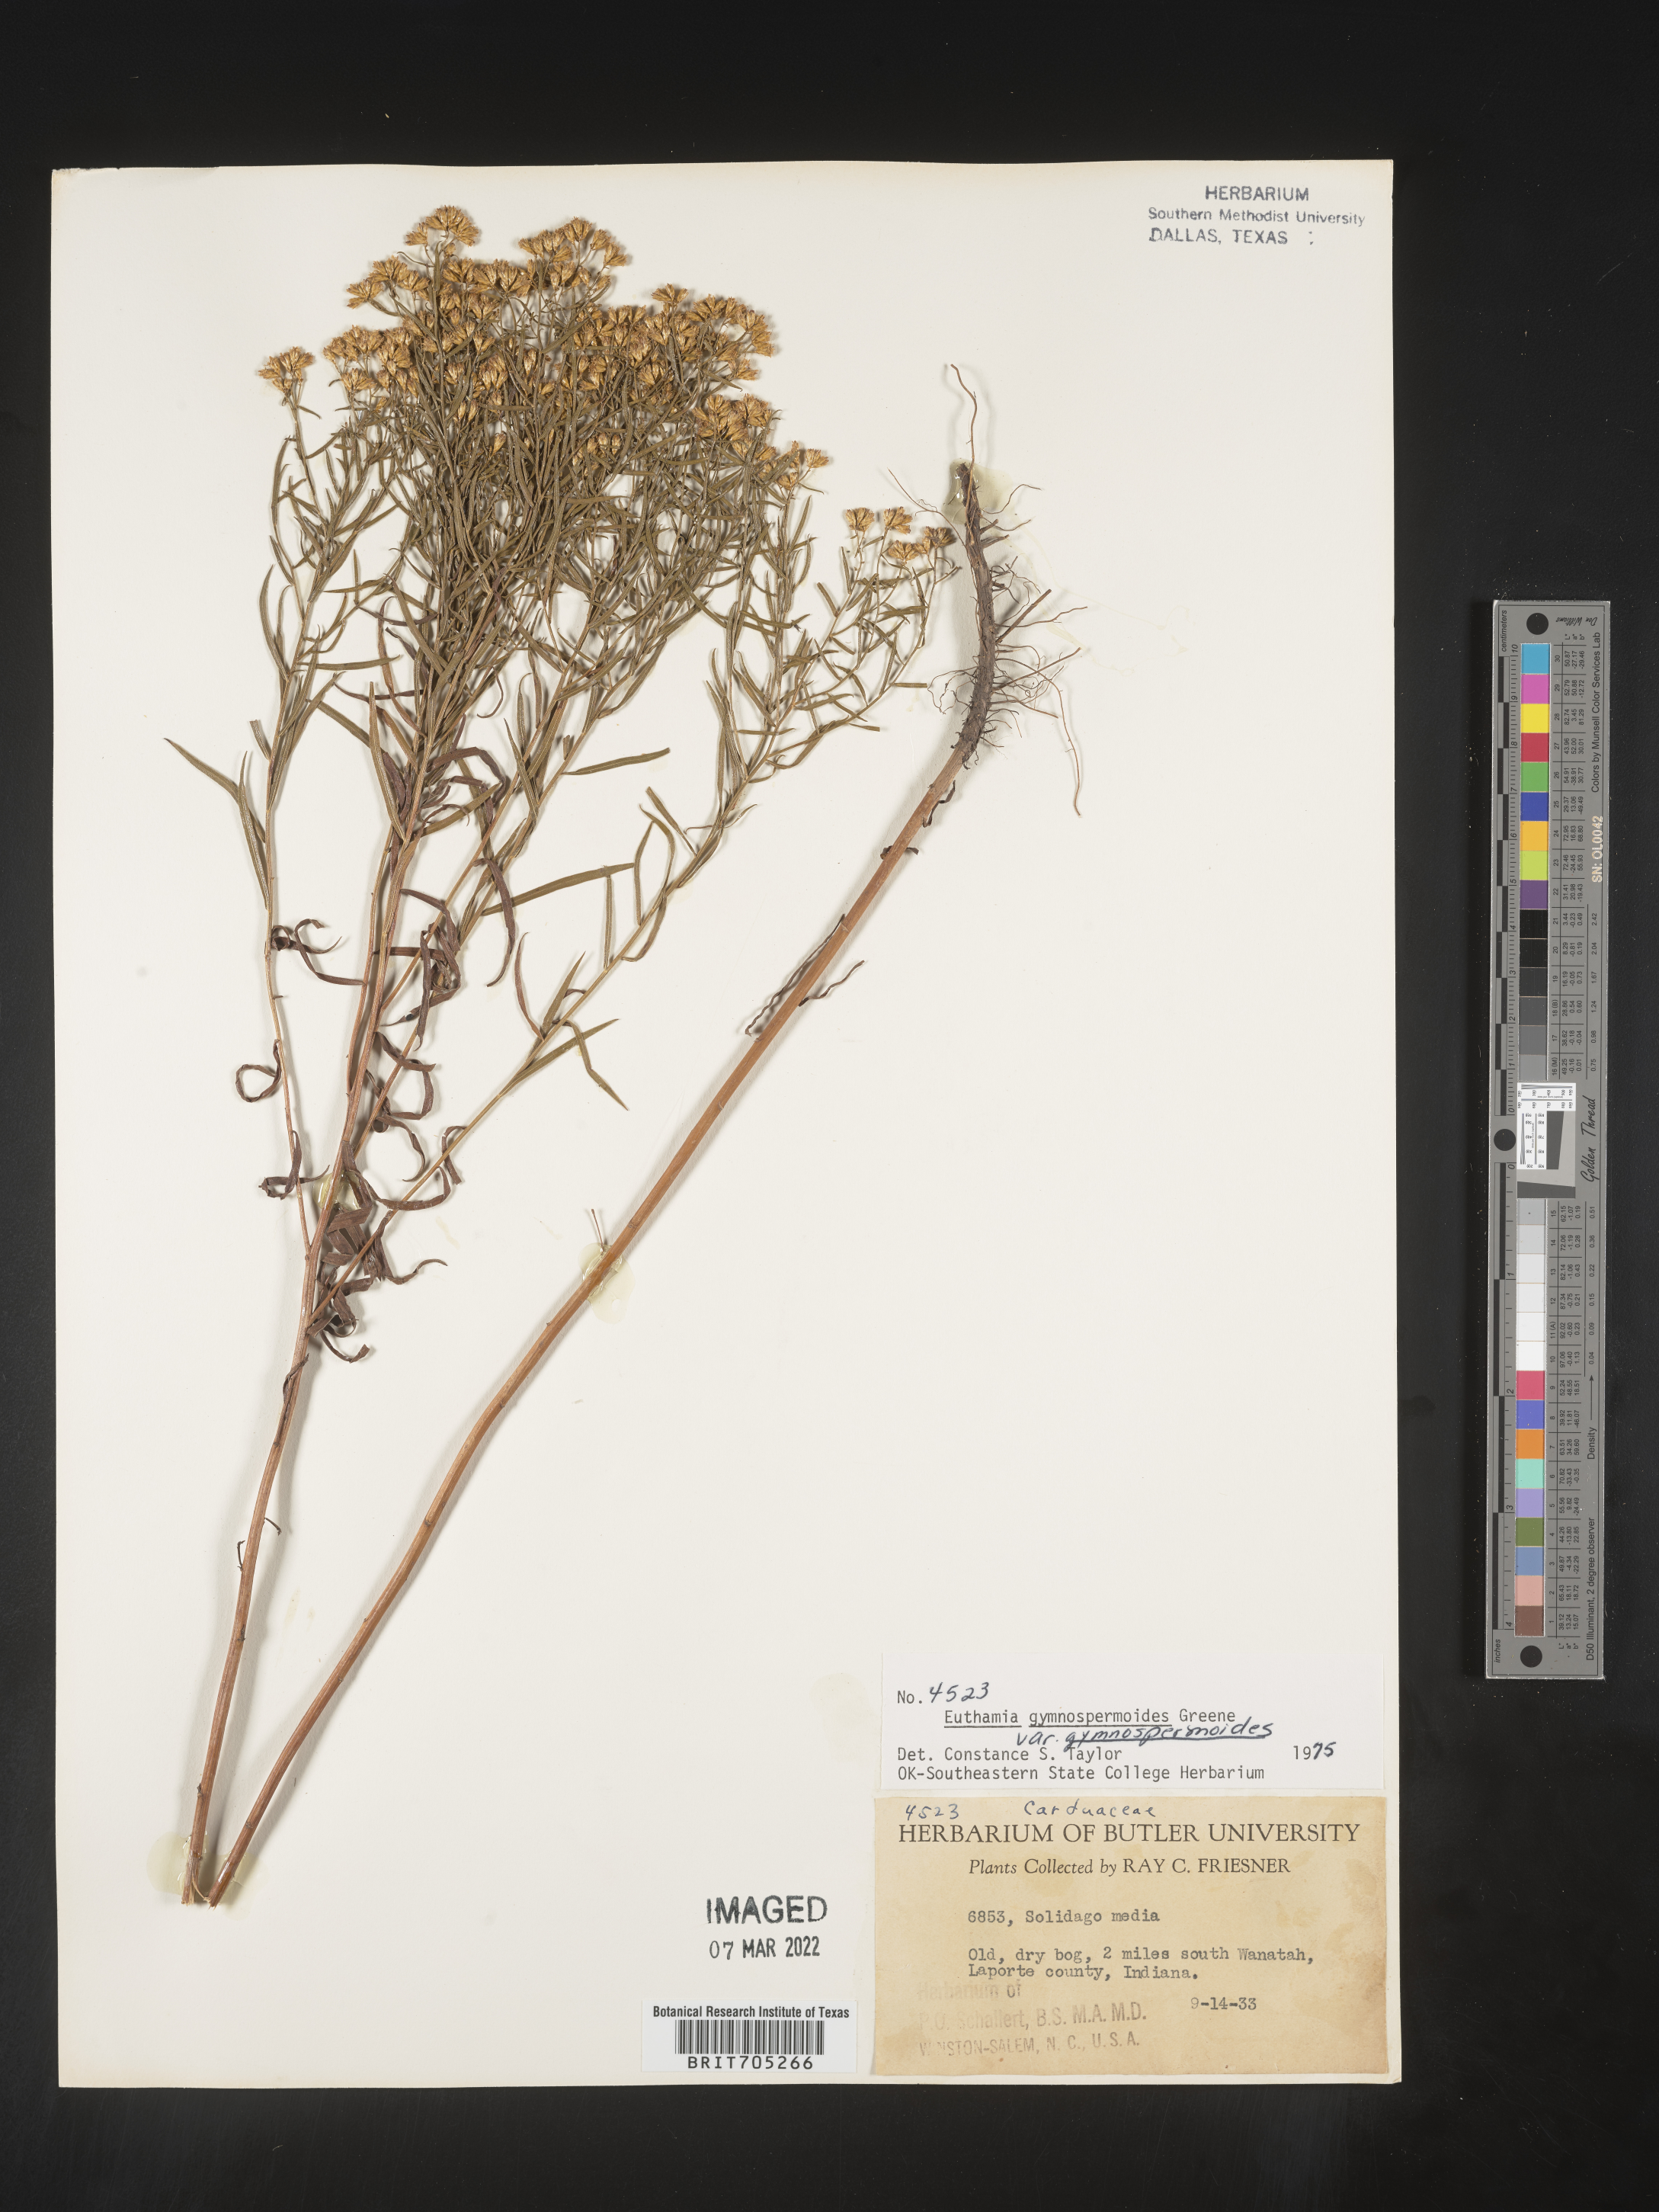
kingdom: Plantae
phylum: Tracheophyta
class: Magnoliopsida
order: Asterales
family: Asteraceae
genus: Euthamia
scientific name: Euthamia gymnospermoides
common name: Great plains goldentop
